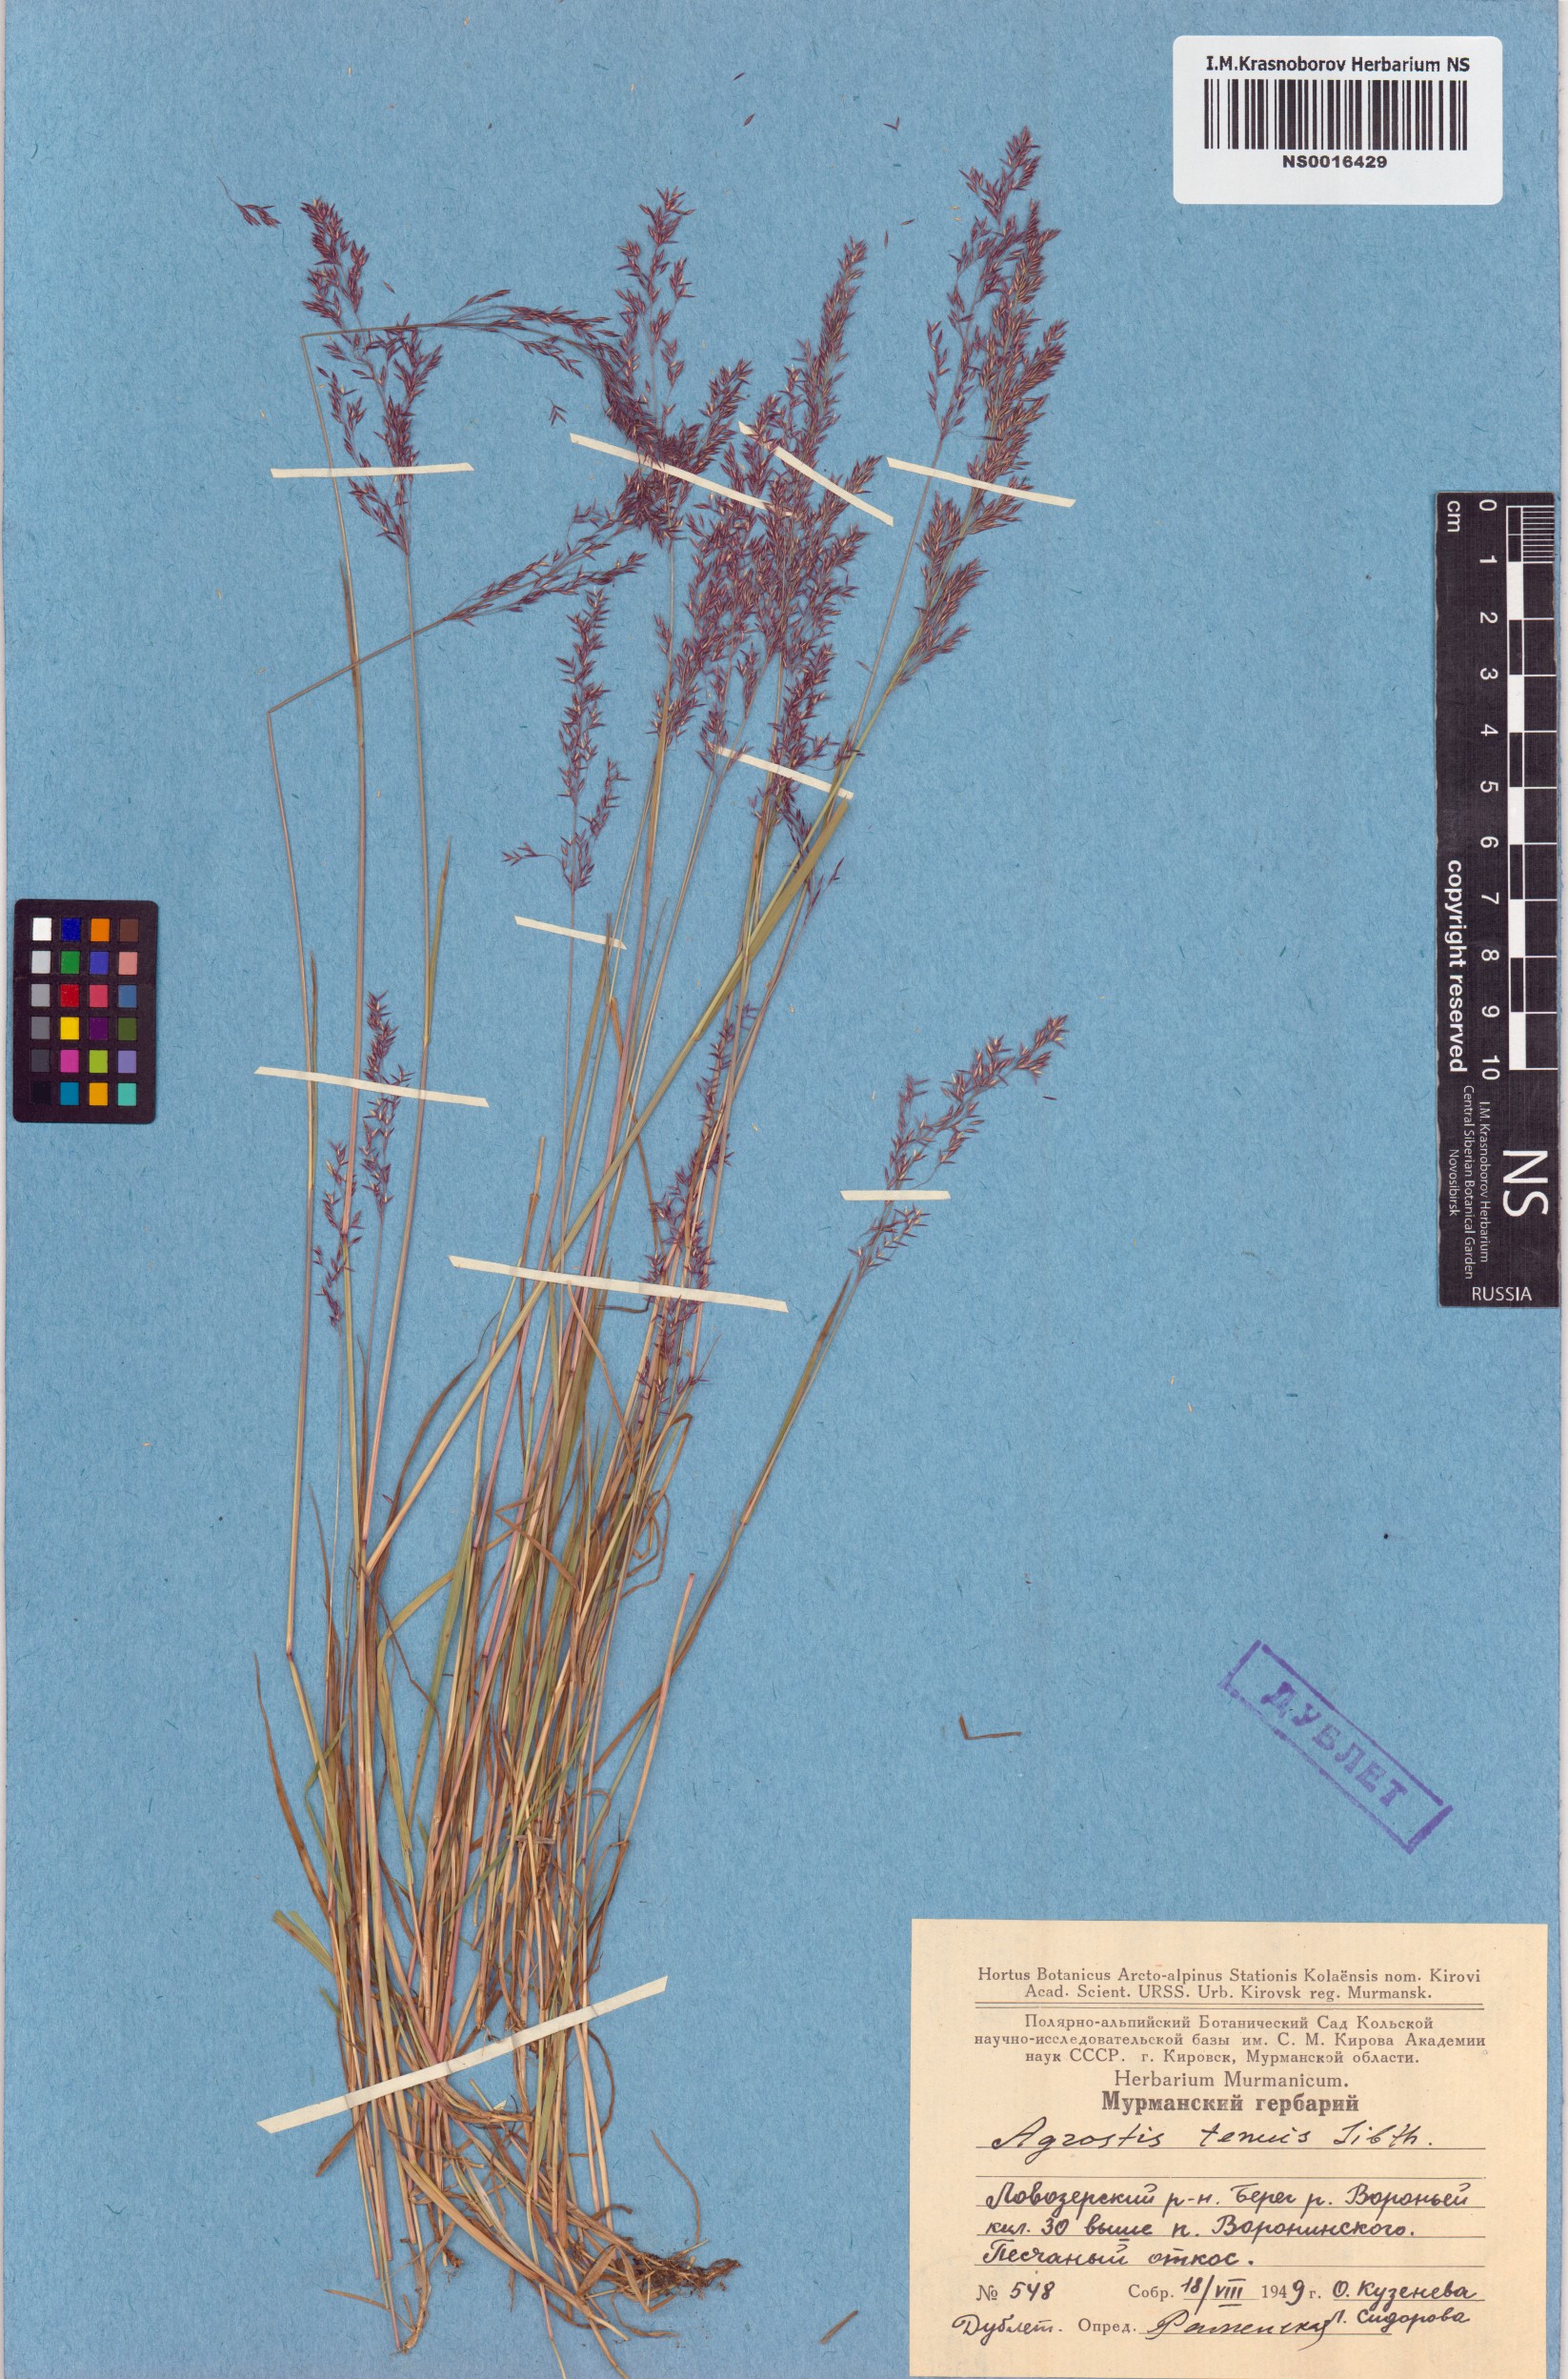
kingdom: Plantae
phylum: Tracheophyta
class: Liliopsida
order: Poales
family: Poaceae
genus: Agrostis
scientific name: Agrostis capillaris
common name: Colonial bentgrass
